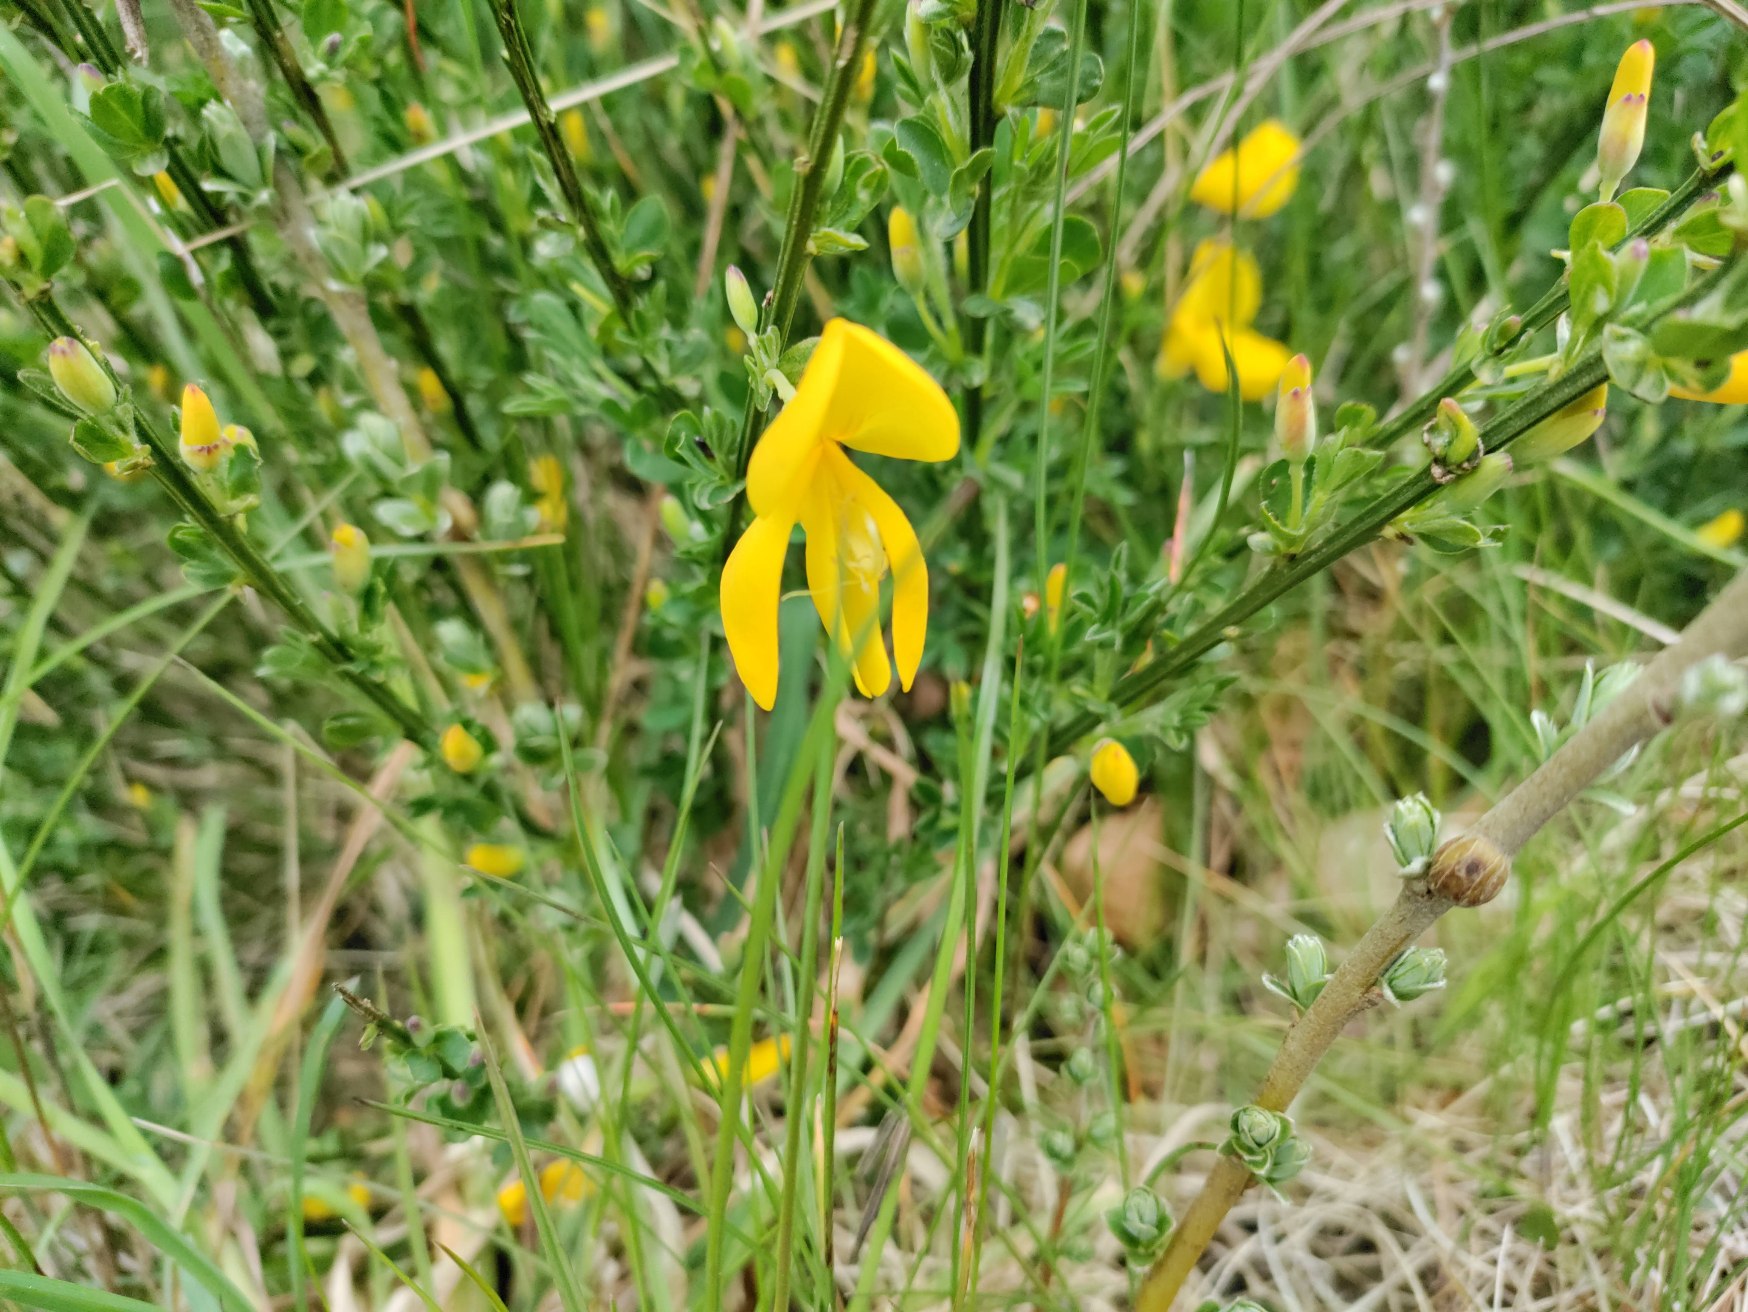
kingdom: Plantae
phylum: Tracheophyta
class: Magnoliopsida
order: Fabales
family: Fabaceae
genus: Cytisus
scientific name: Cytisus scoparius
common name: Almindelig gyvel
